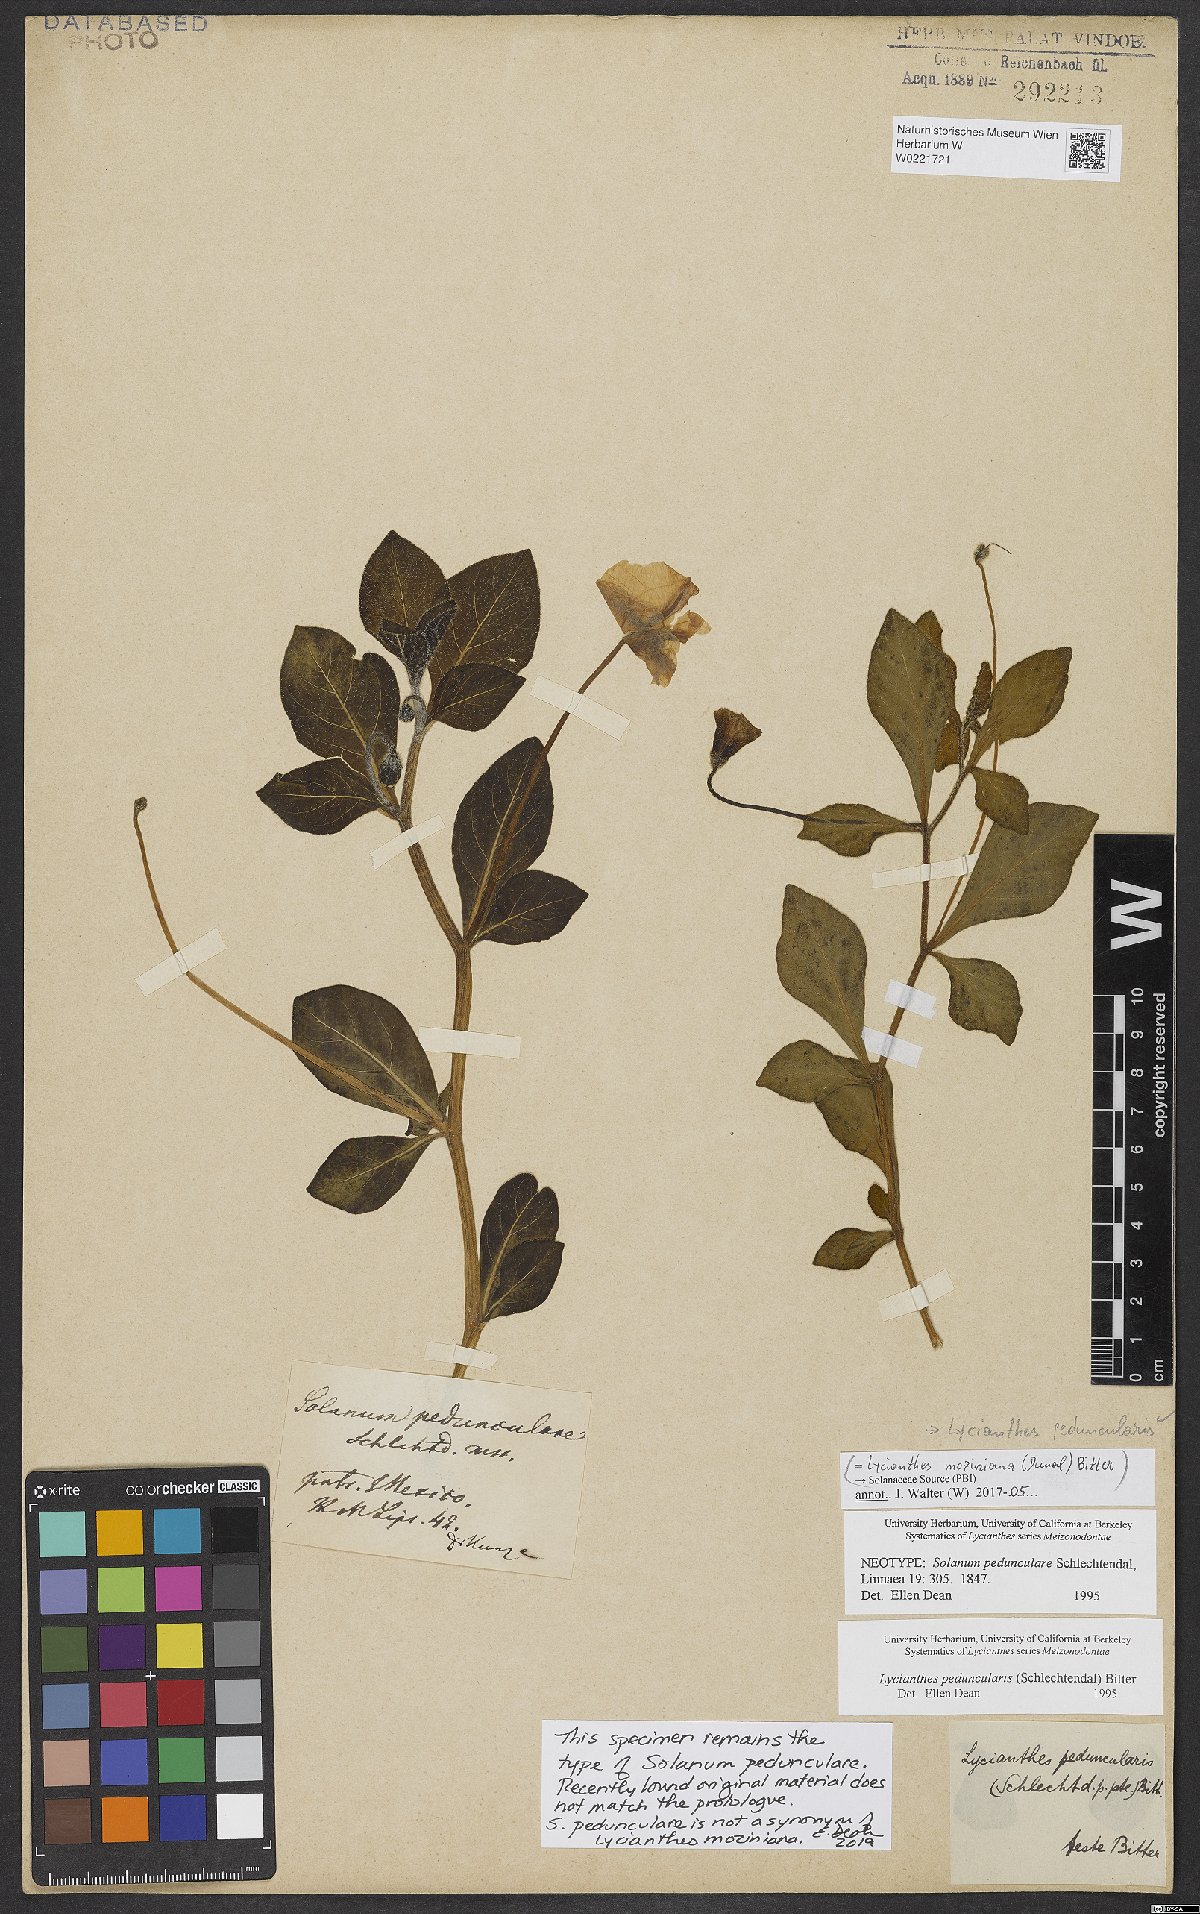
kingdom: Plantae
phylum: Tracheophyta
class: Magnoliopsida
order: Solanales
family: Solanaceae
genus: Lycianthes
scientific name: Lycianthes peduncularis
